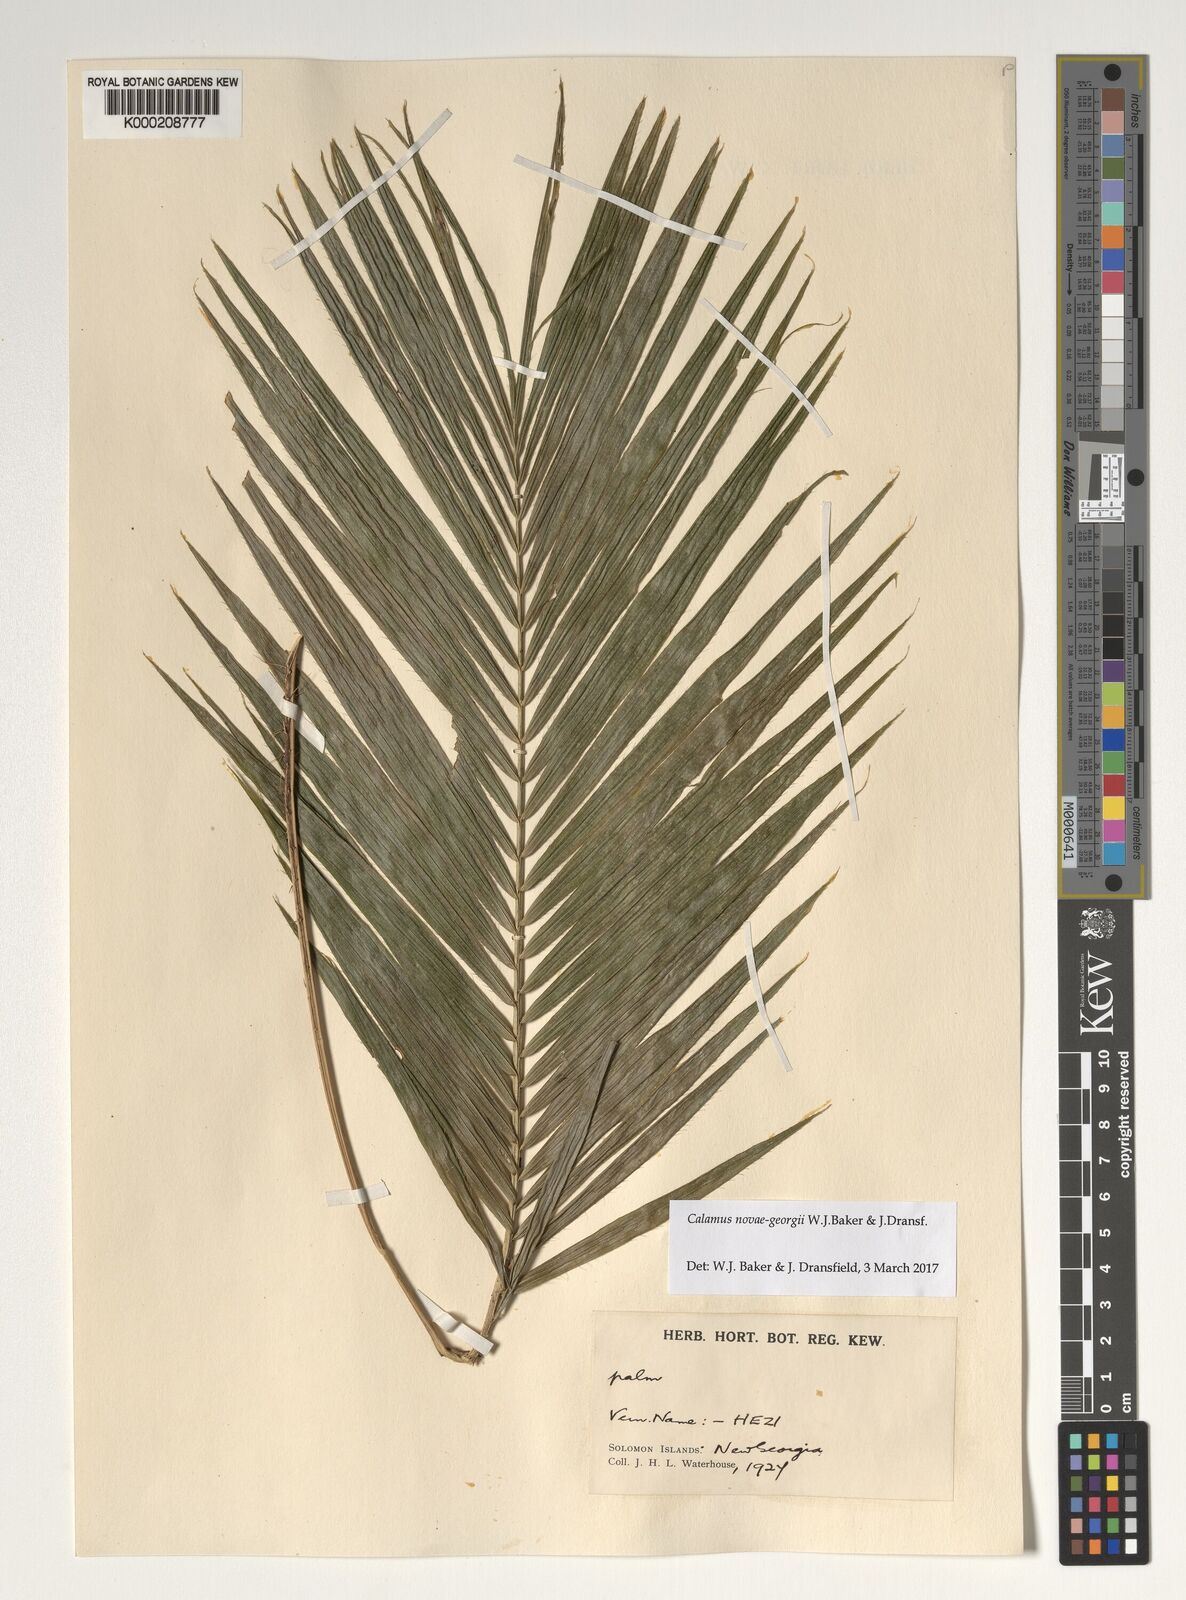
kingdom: Plantae
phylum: Tracheophyta
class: Liliopsida
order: Arecales
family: Arecaceae
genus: Calamus
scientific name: Calamus
